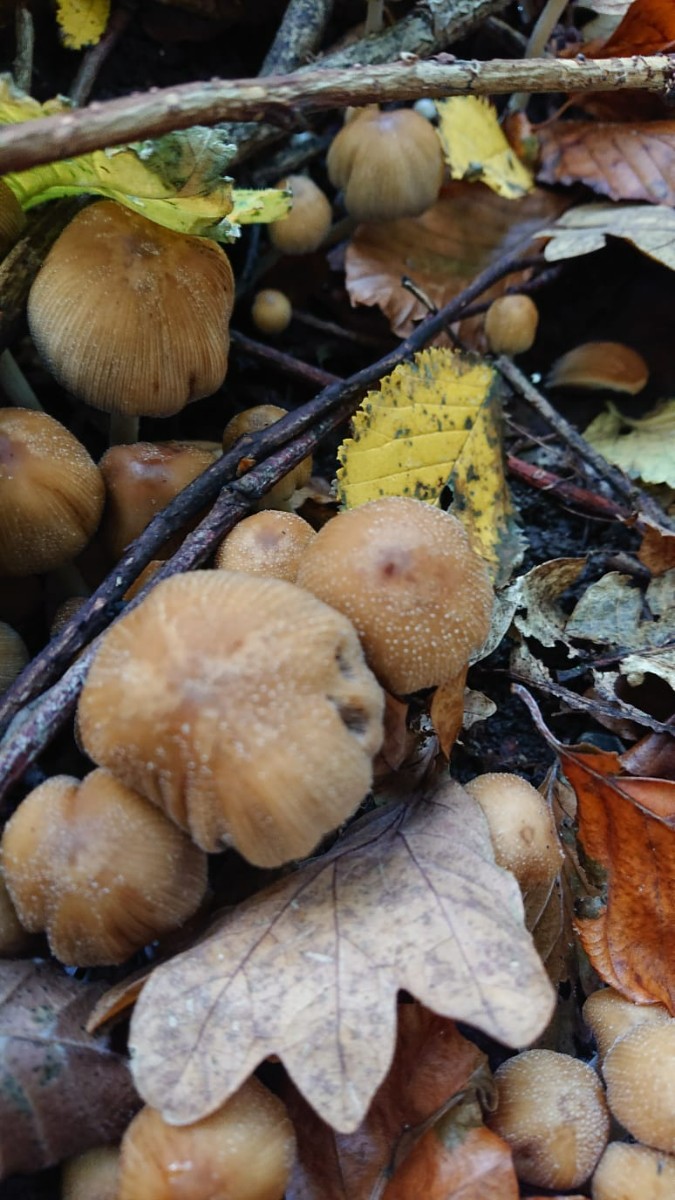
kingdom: Fungi
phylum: Basidiomycota
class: Agaricomycetes
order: Agaricales
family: Psathyrellaceae
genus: Coprinellus
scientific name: Coprinellus
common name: blækhat
